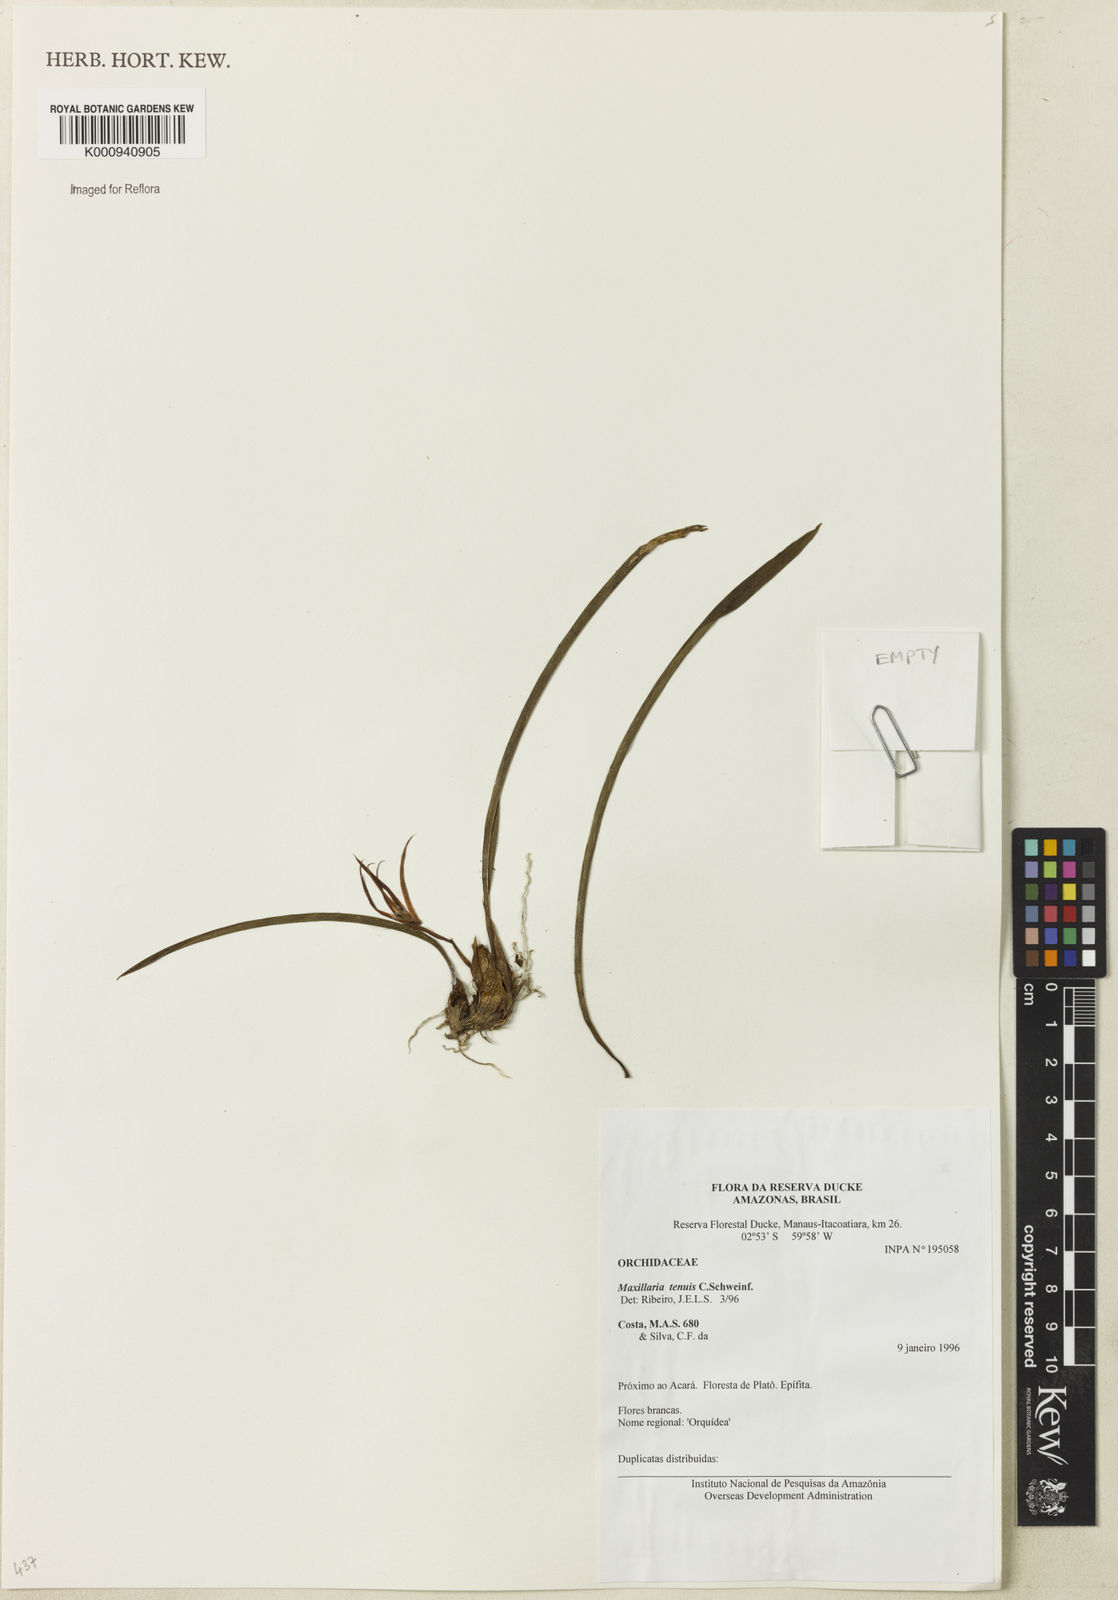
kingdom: Plantae
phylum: Tracheophyta
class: Liliopsida
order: Asparagales
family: Orchidaceae
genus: Maxillaria
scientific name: Maxillaria tenuis
